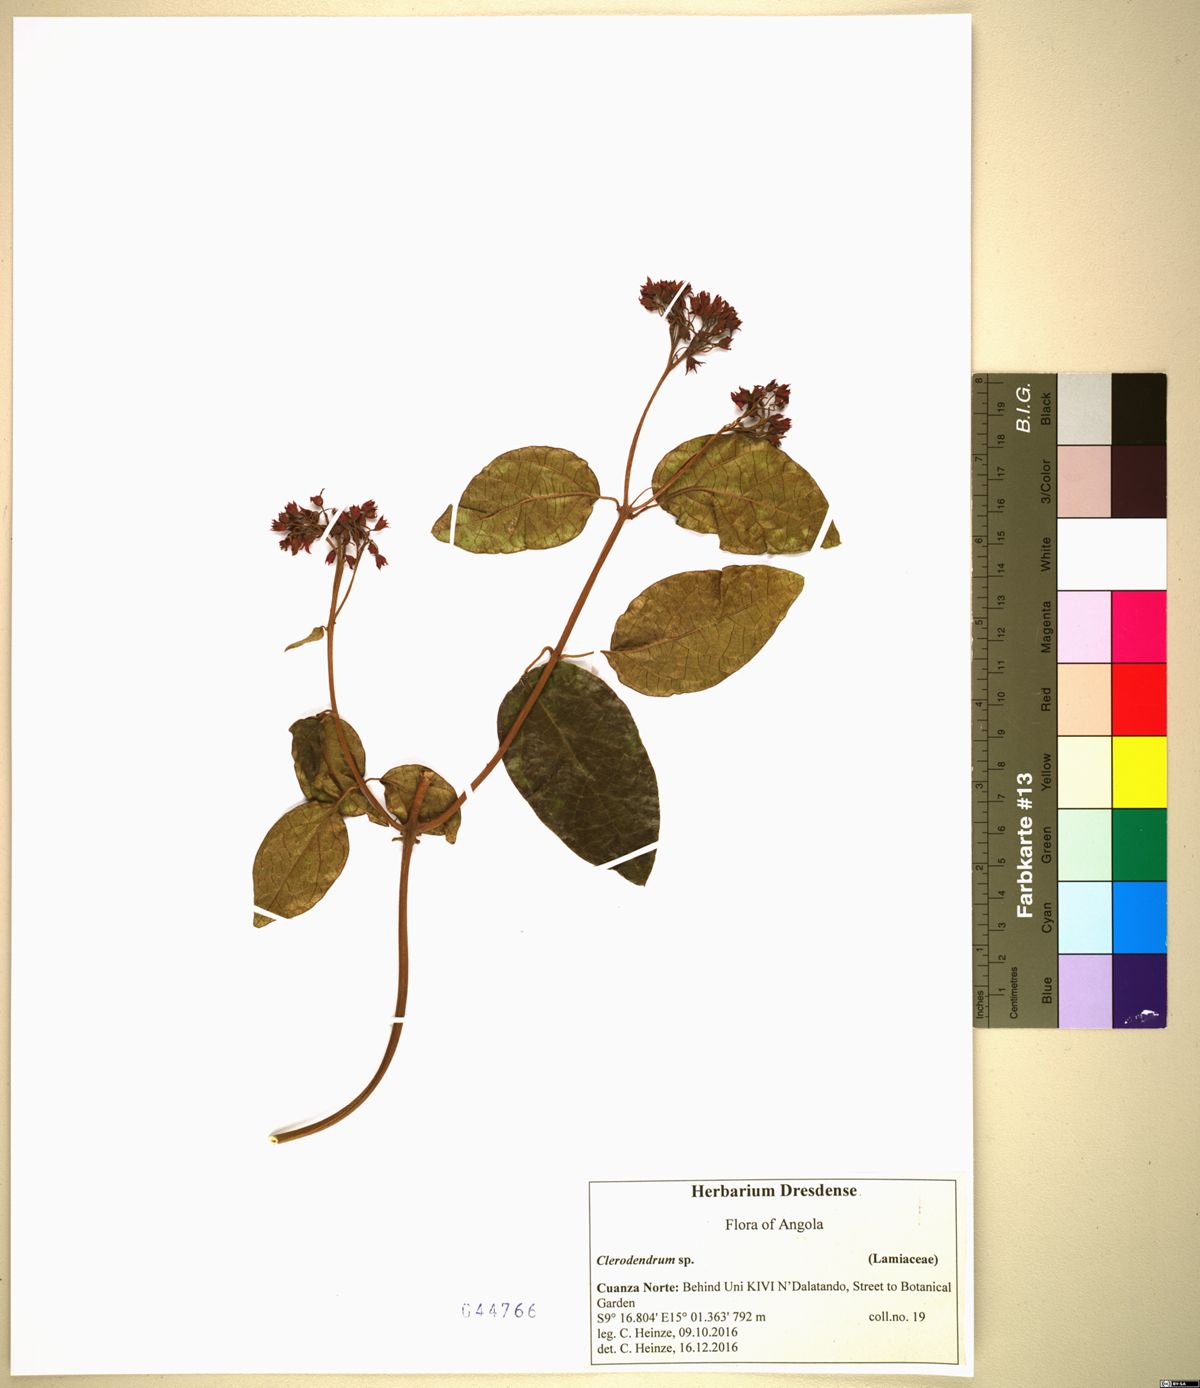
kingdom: Plantae
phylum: Tracheophyta
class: Magnoliopsida
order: Lamiales
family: Lamiaceae
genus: Clerodendrum
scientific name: Clerodendrum
